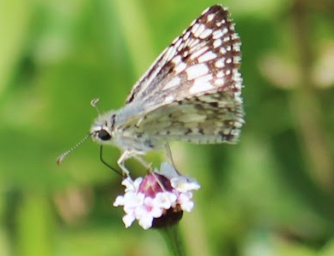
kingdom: Animalia
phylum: Arthropoda
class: Insecta
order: Lepidoptera
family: Hesperiidae
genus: Pyrgus
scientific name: Pyrgus oileus
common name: Tropical Checkered-Skipper
